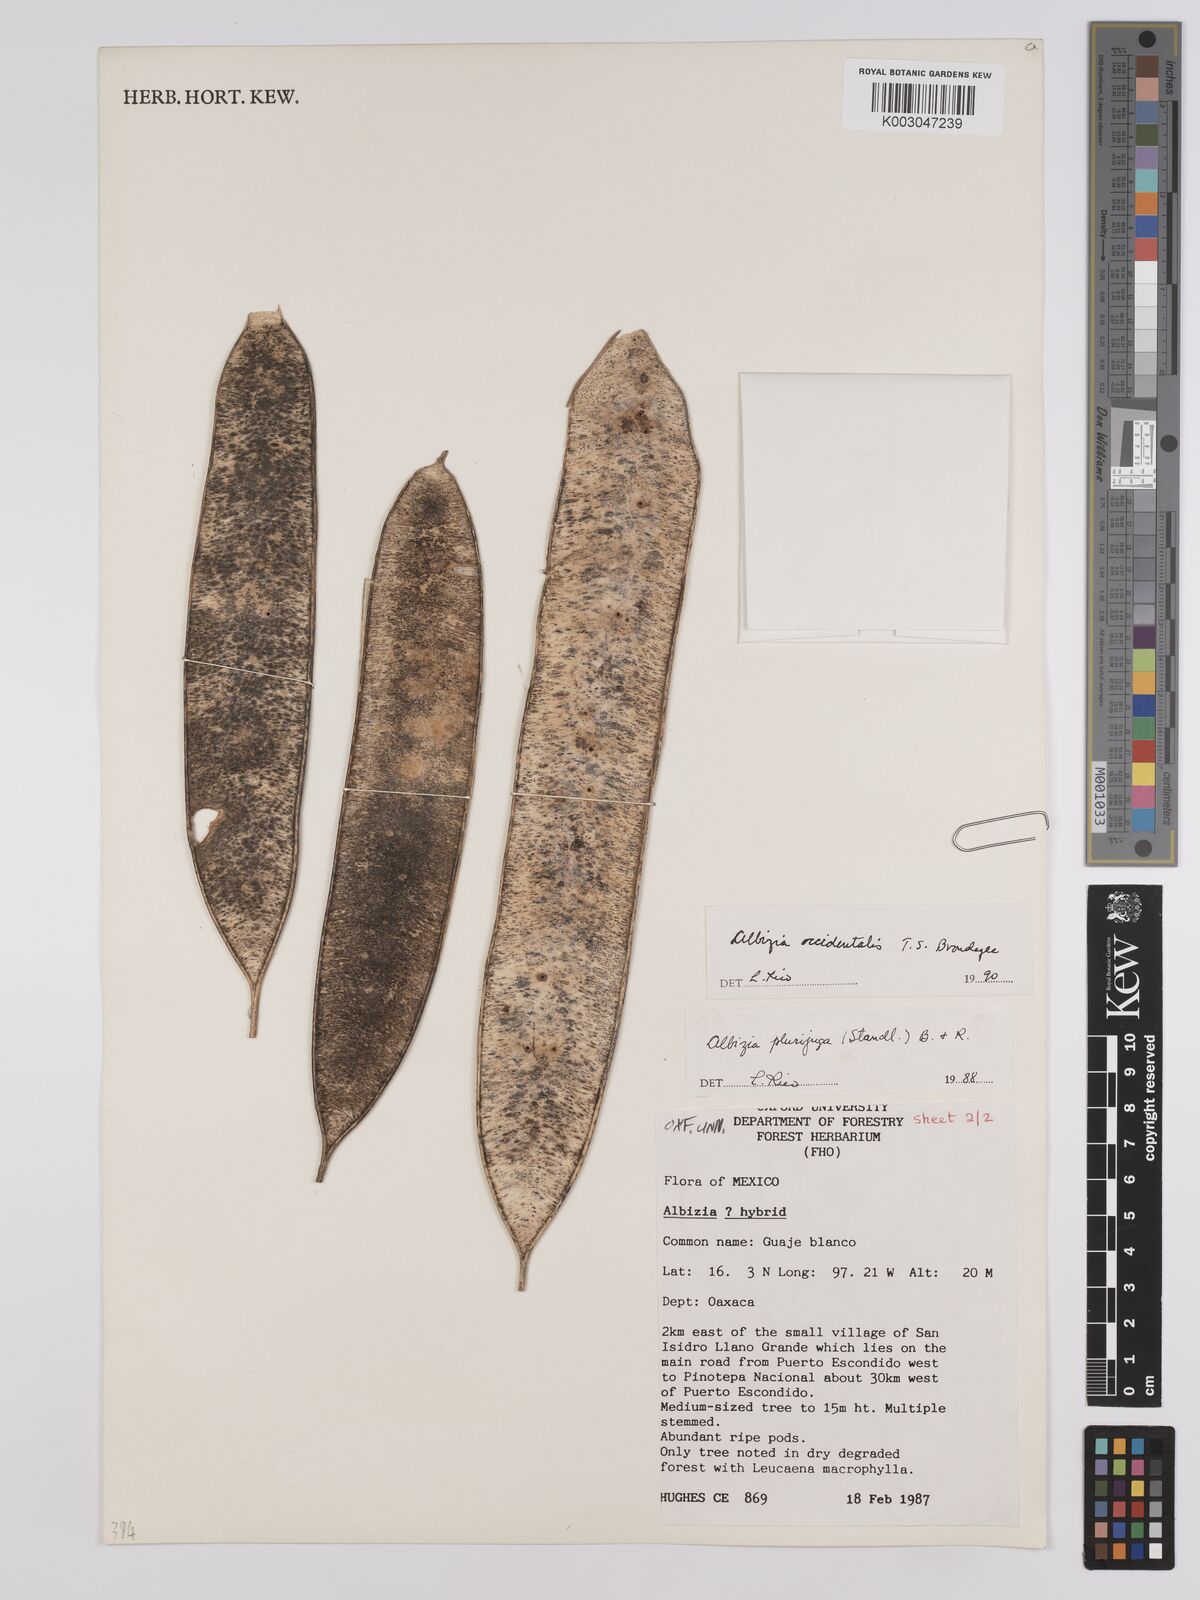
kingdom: Plantae
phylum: Tracheophyta
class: Magnoliopsida
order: Fabales
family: Fabaceae
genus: Albizia
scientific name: Albizia
